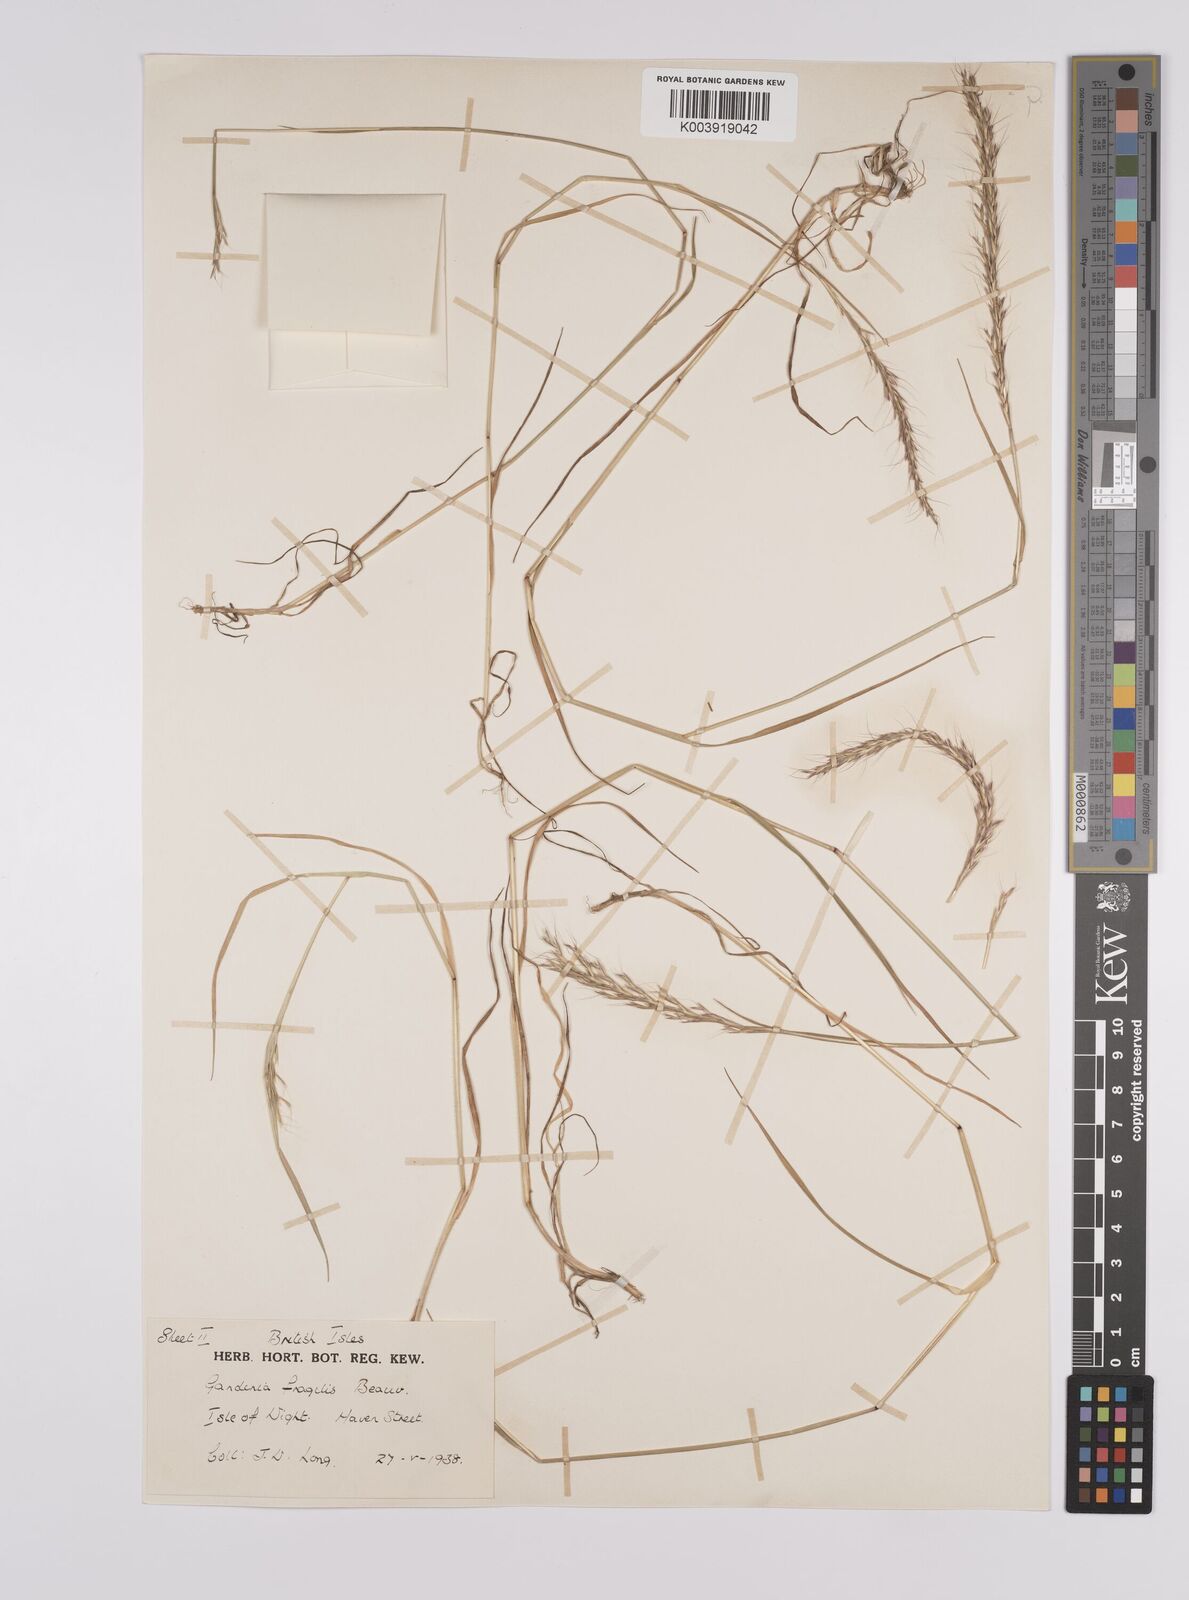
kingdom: Plantae
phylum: Tracheophyta
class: Liliopsida
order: Poales
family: Poaceae
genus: Gaudinia
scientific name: Gaudinia fragilis
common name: French oat-grass
